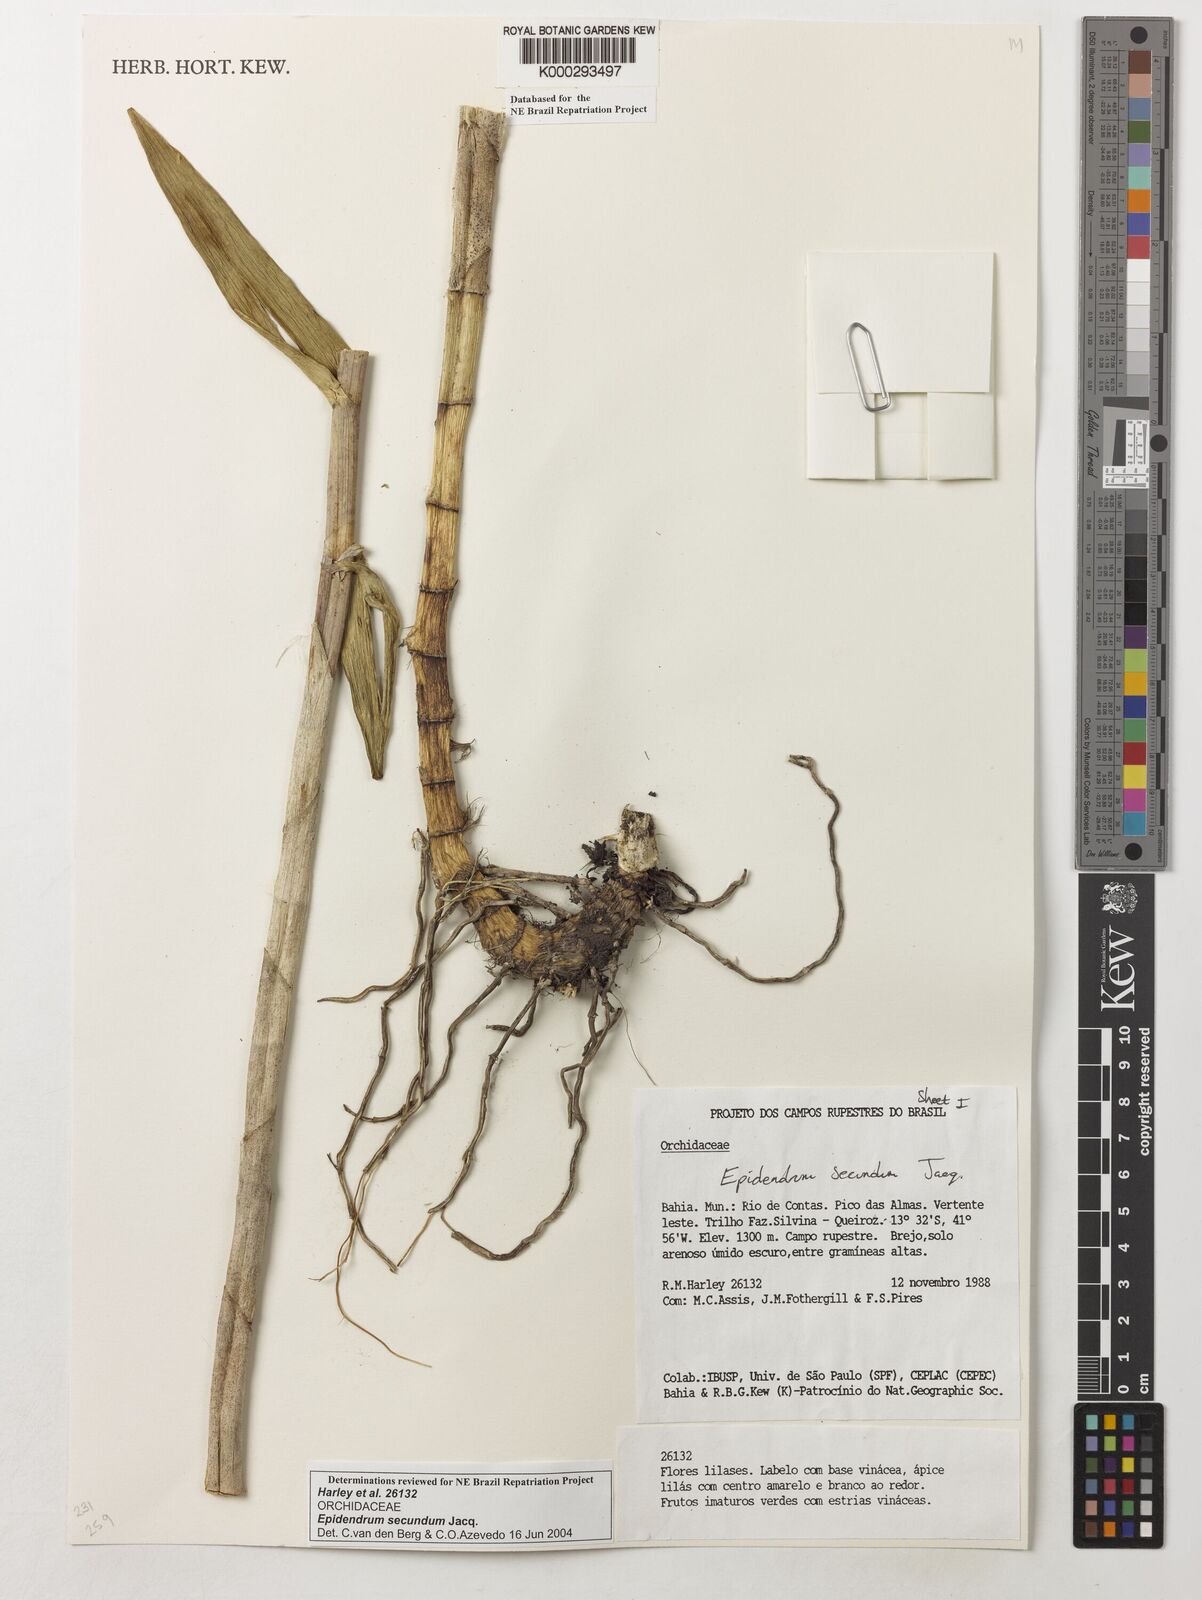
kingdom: Plantae
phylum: Tracheophyta
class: Liliopsida
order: Asparagales
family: Orchidaceae
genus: Epidendrum
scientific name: Epidendrum secundum
